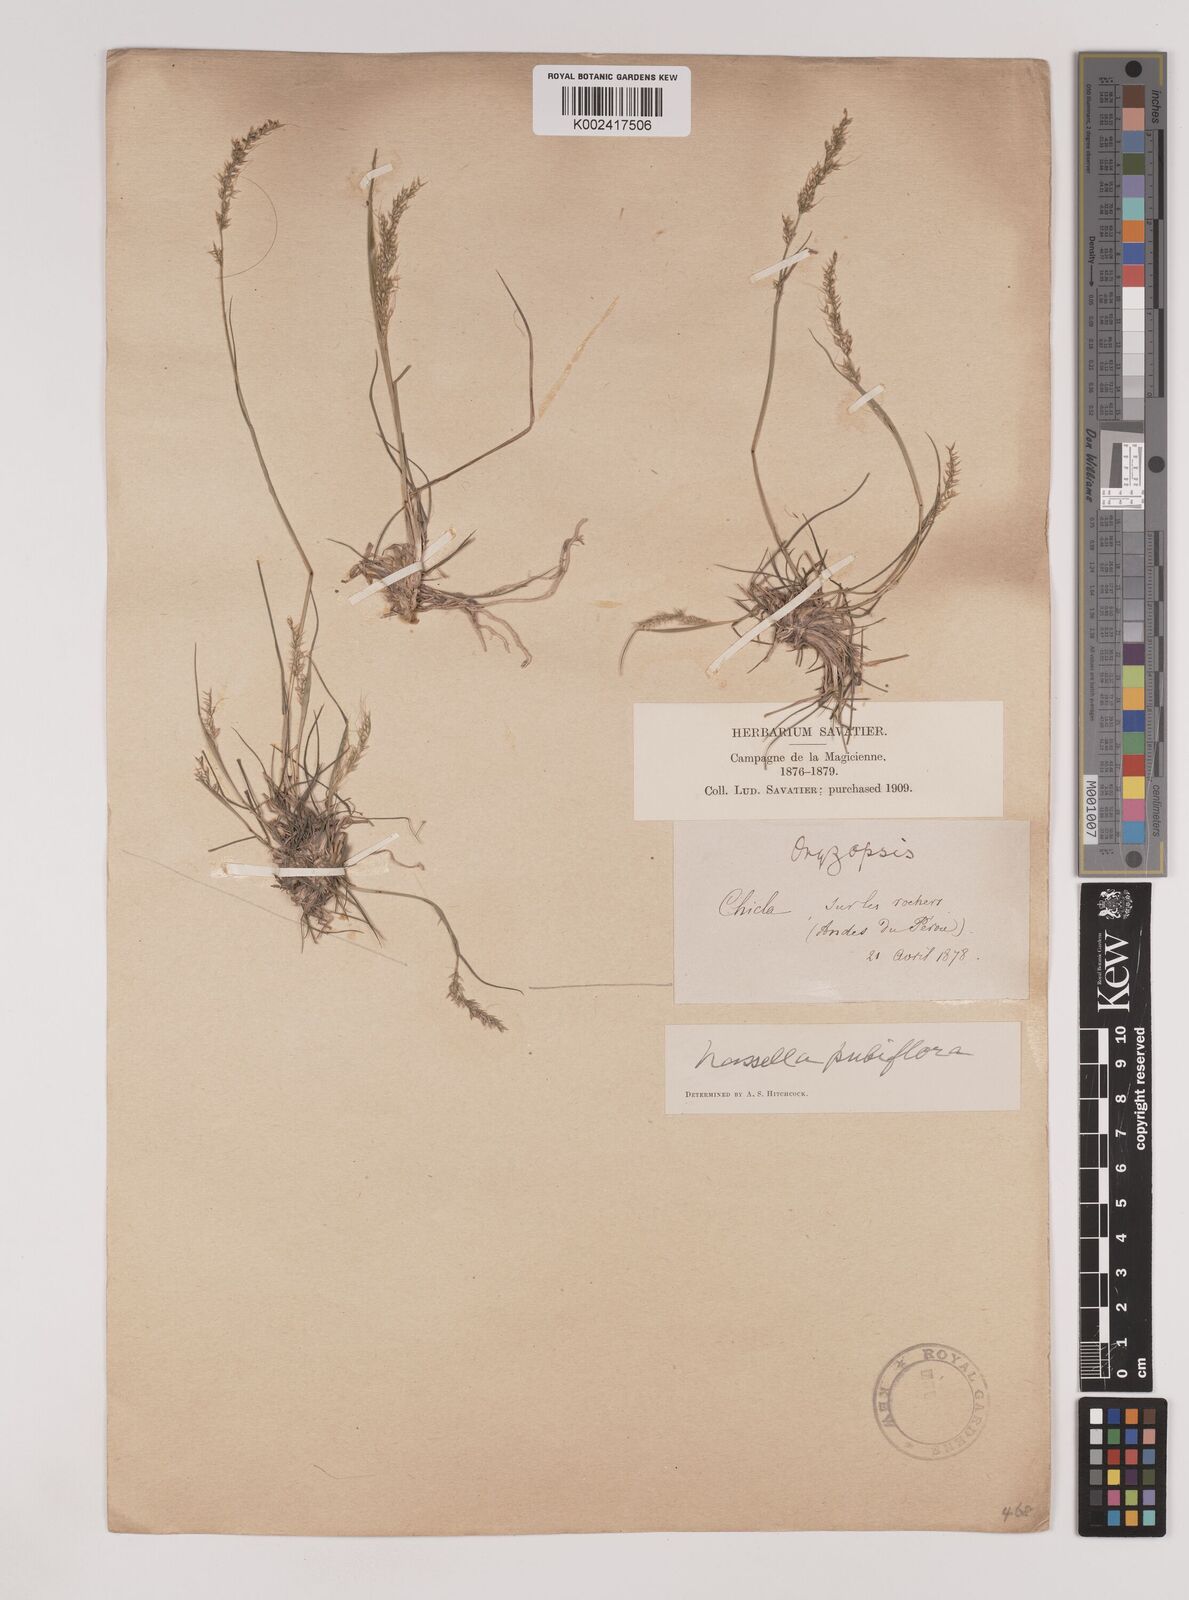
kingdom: Plantae
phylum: Tracheophyta
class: Liliopsida
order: Poales
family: Poaceae
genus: Nassella
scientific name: Nassella pubiflora
